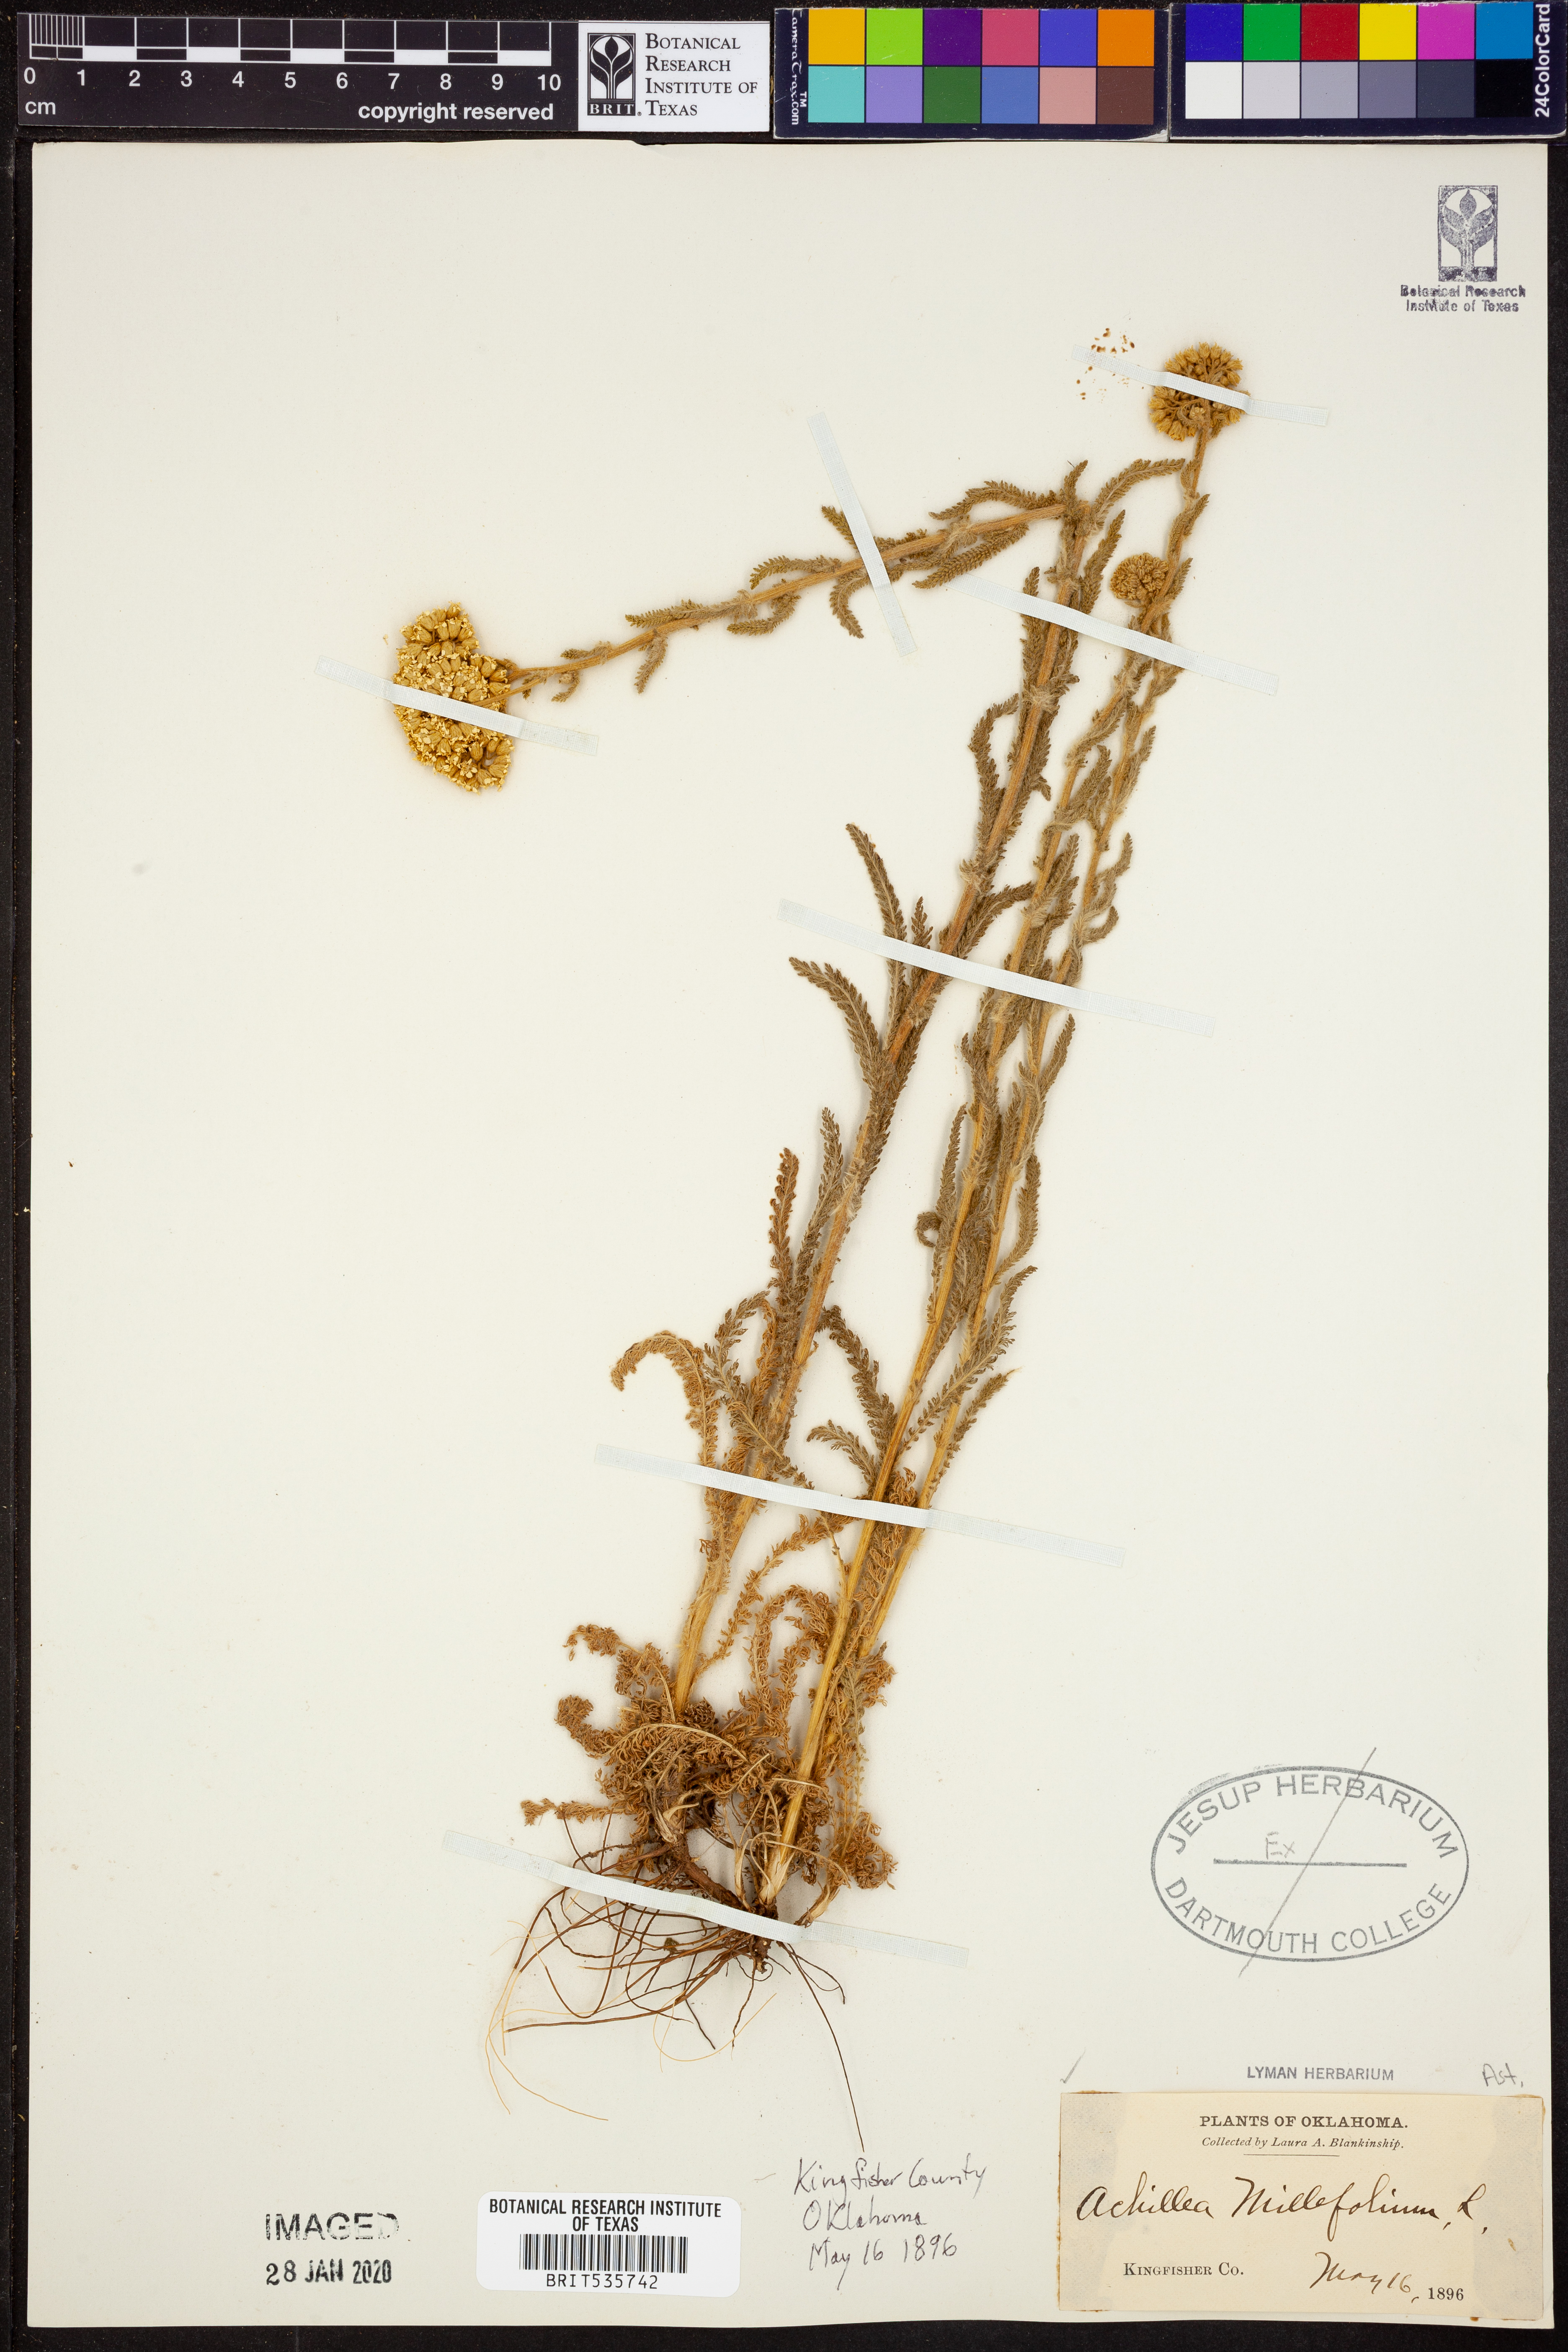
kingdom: Plantae
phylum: Tracheophyta
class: Magnoliopsida
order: Asterales
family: Asteraceae
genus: Achillea
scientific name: Achillea millefolium
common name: Yarrow
